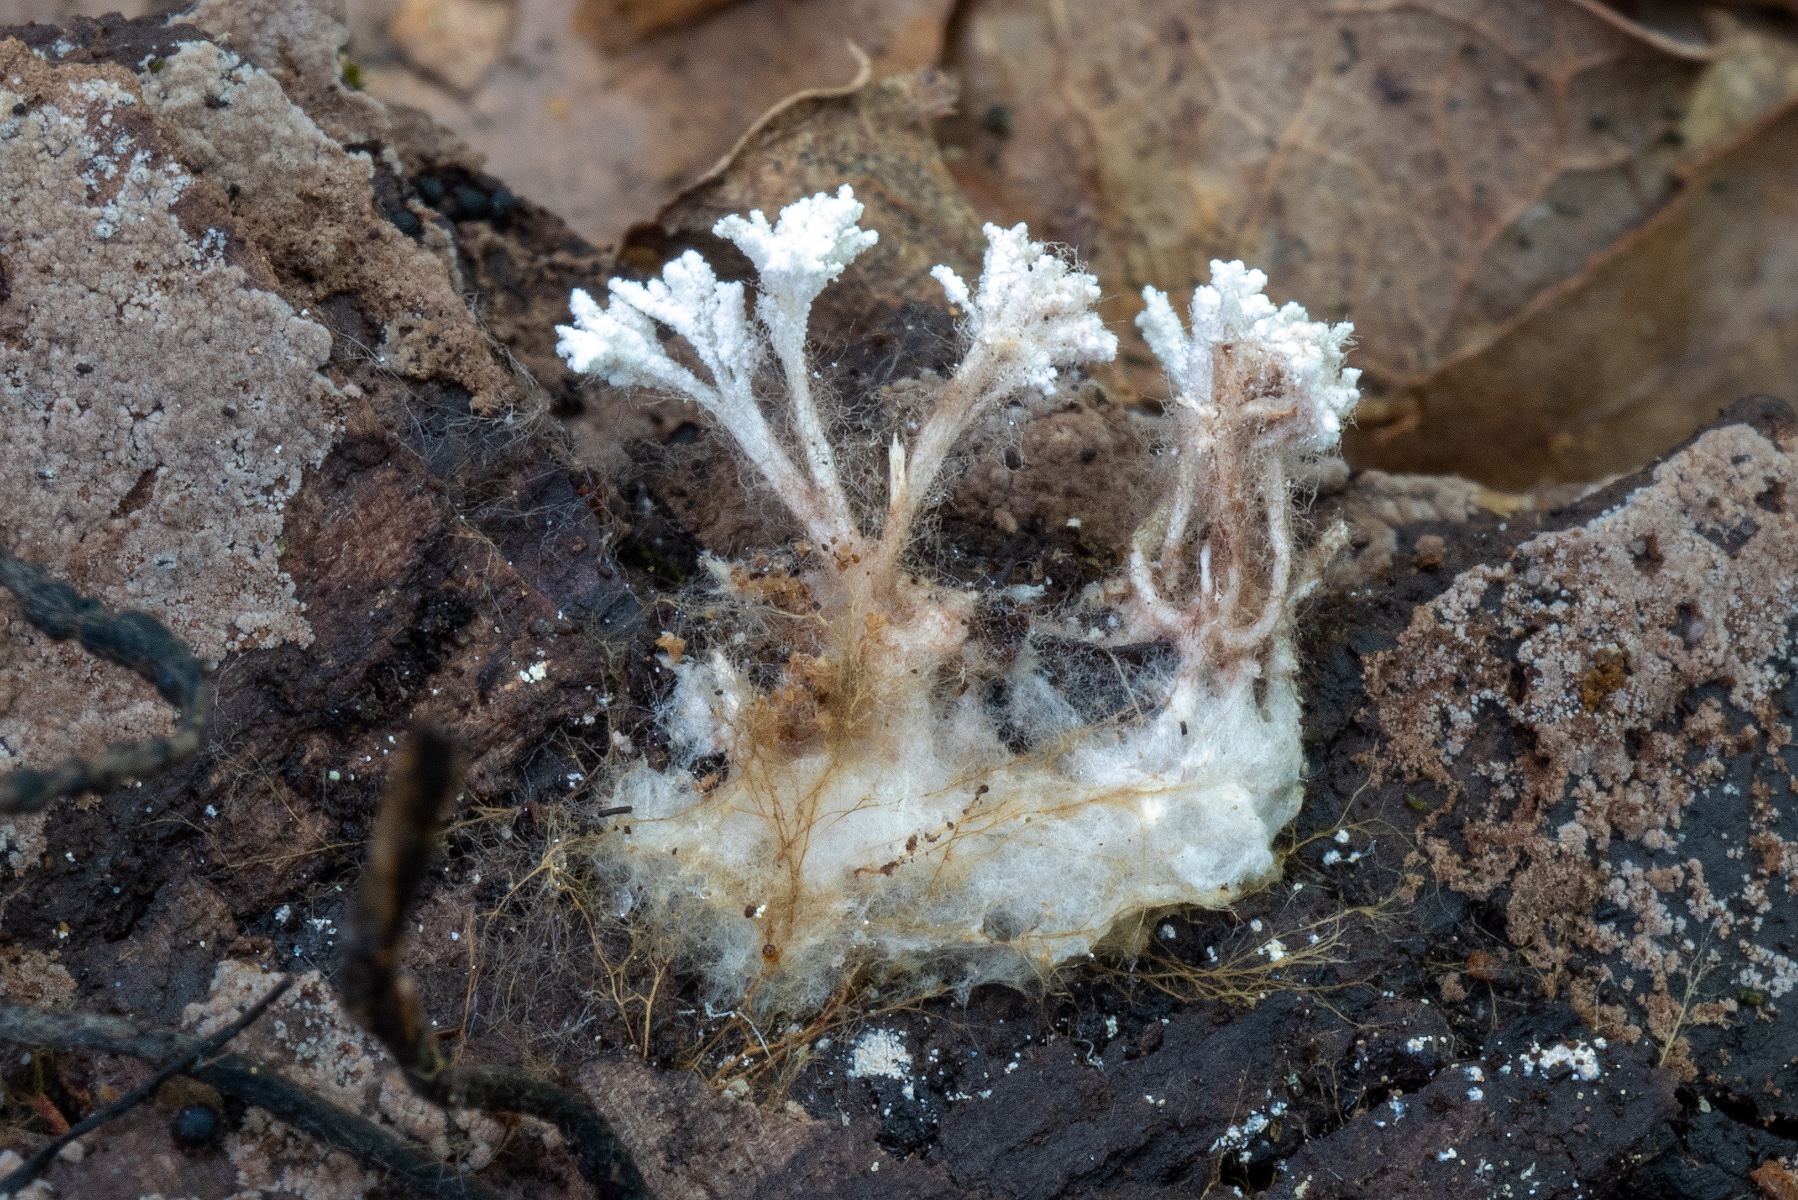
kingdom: Fungi
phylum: Ascomycota
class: Sordariomycetes
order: Hypocreales
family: Cordycipitaceae
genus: Cordyceps
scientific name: Cordyceps
